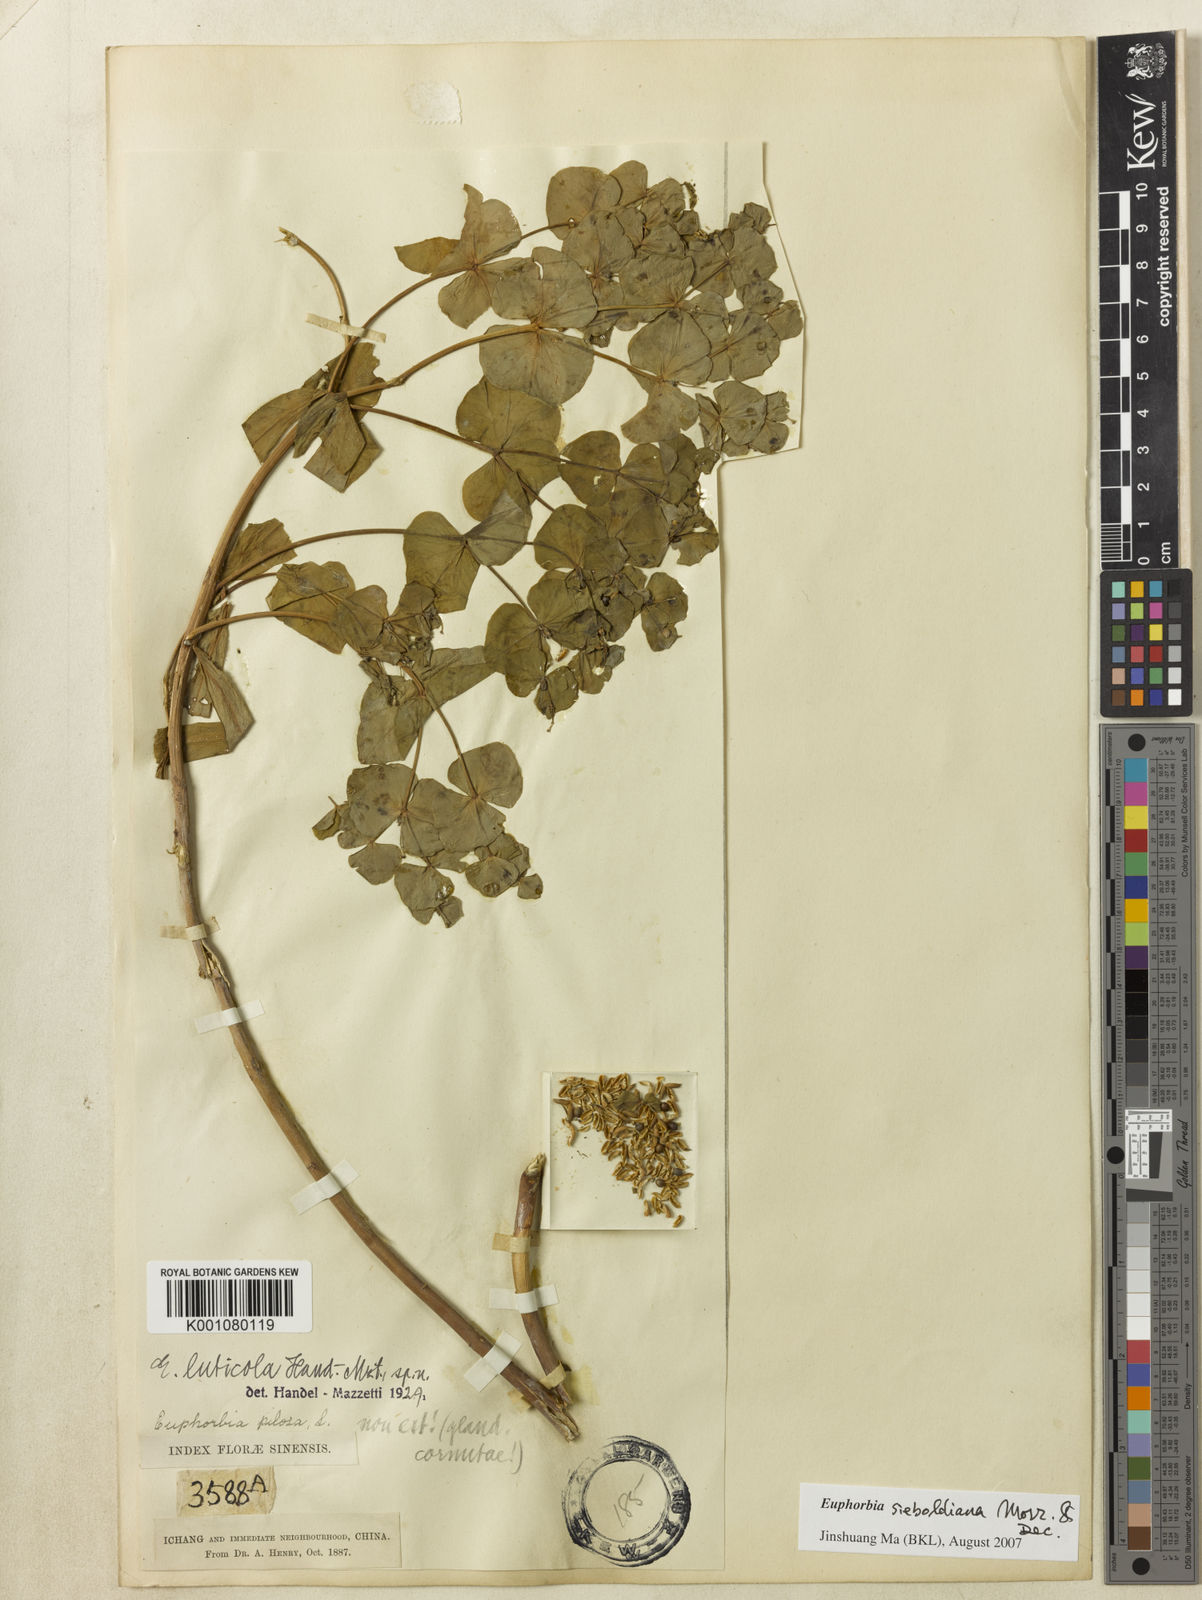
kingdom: Plantae
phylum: Tracheophyta
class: Magnoliopsida
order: Malpighiales
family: Euphorbiaceae
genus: Euphorbia
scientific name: Euphorbia sieboldiana
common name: Siebold's spurge
